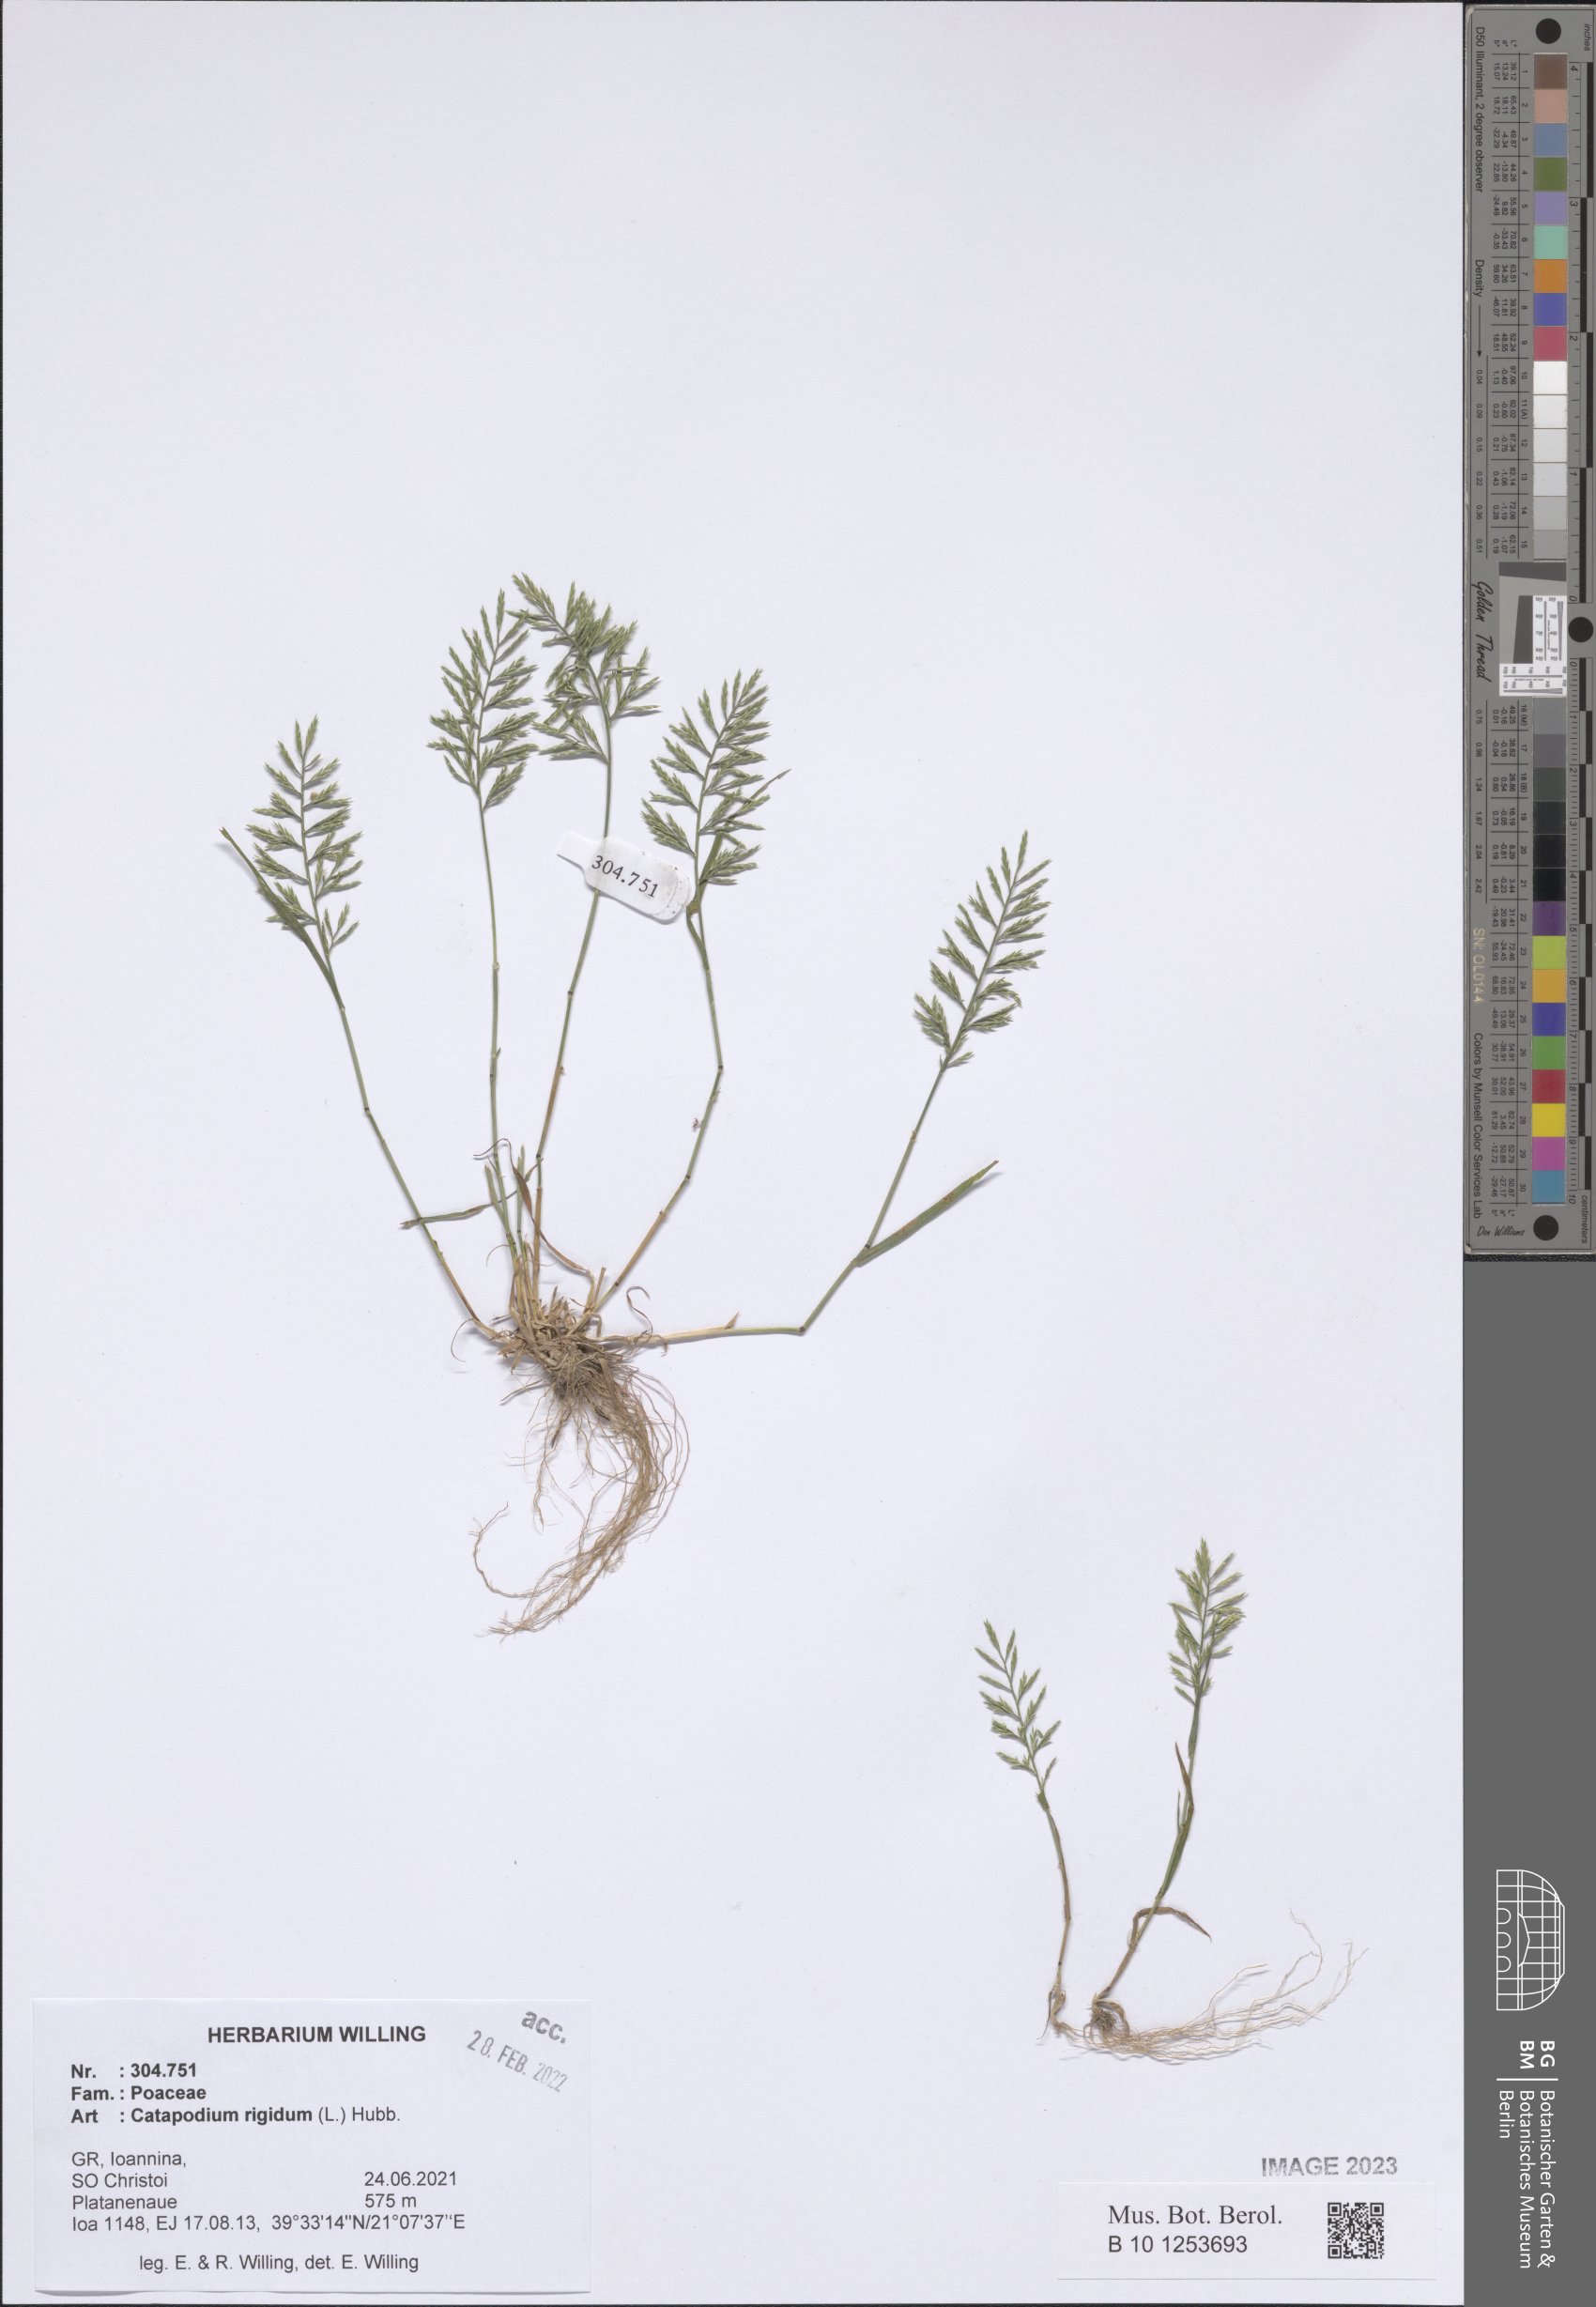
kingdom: Plantae
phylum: Tracheophyta
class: Liliopsida
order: Poales
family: Poaceae
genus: Catapodium
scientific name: Catapodium rigidum
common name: Fern-grass
